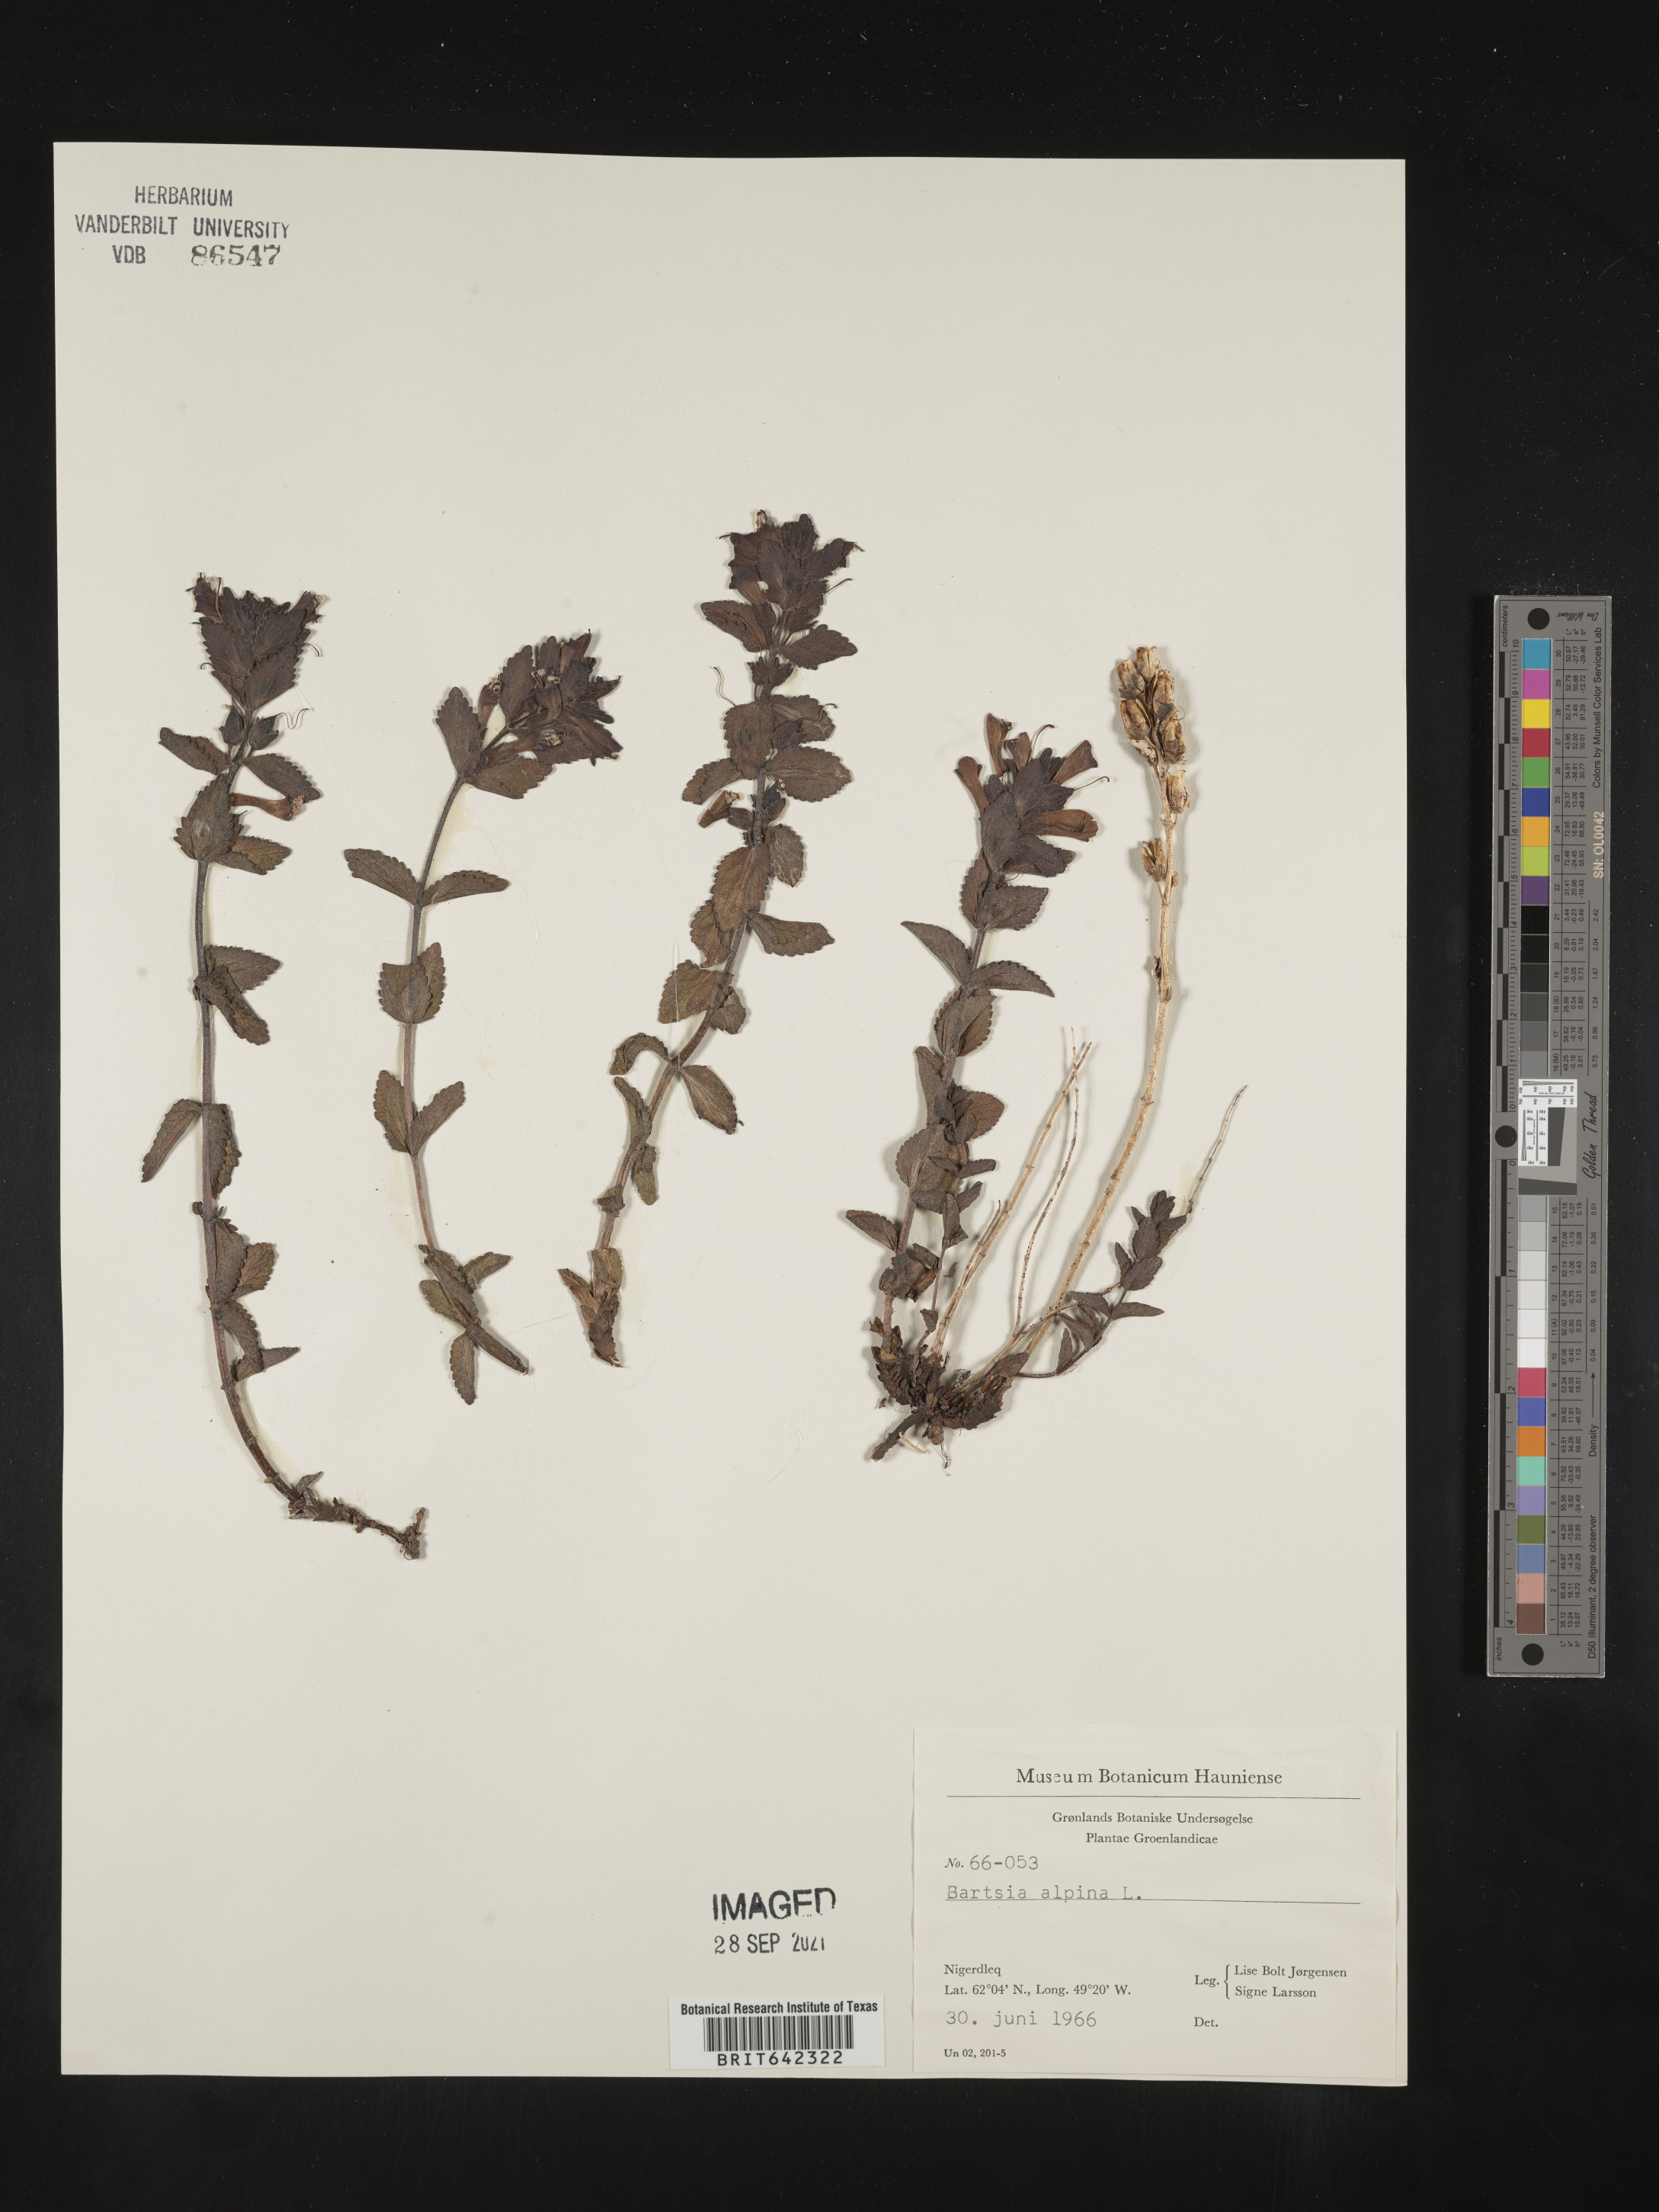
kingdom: Plantae
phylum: Tracheophyta
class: Magnoliopsida
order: Lamiales
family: Orobanchaceae
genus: Bartsia
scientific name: Bartsia
